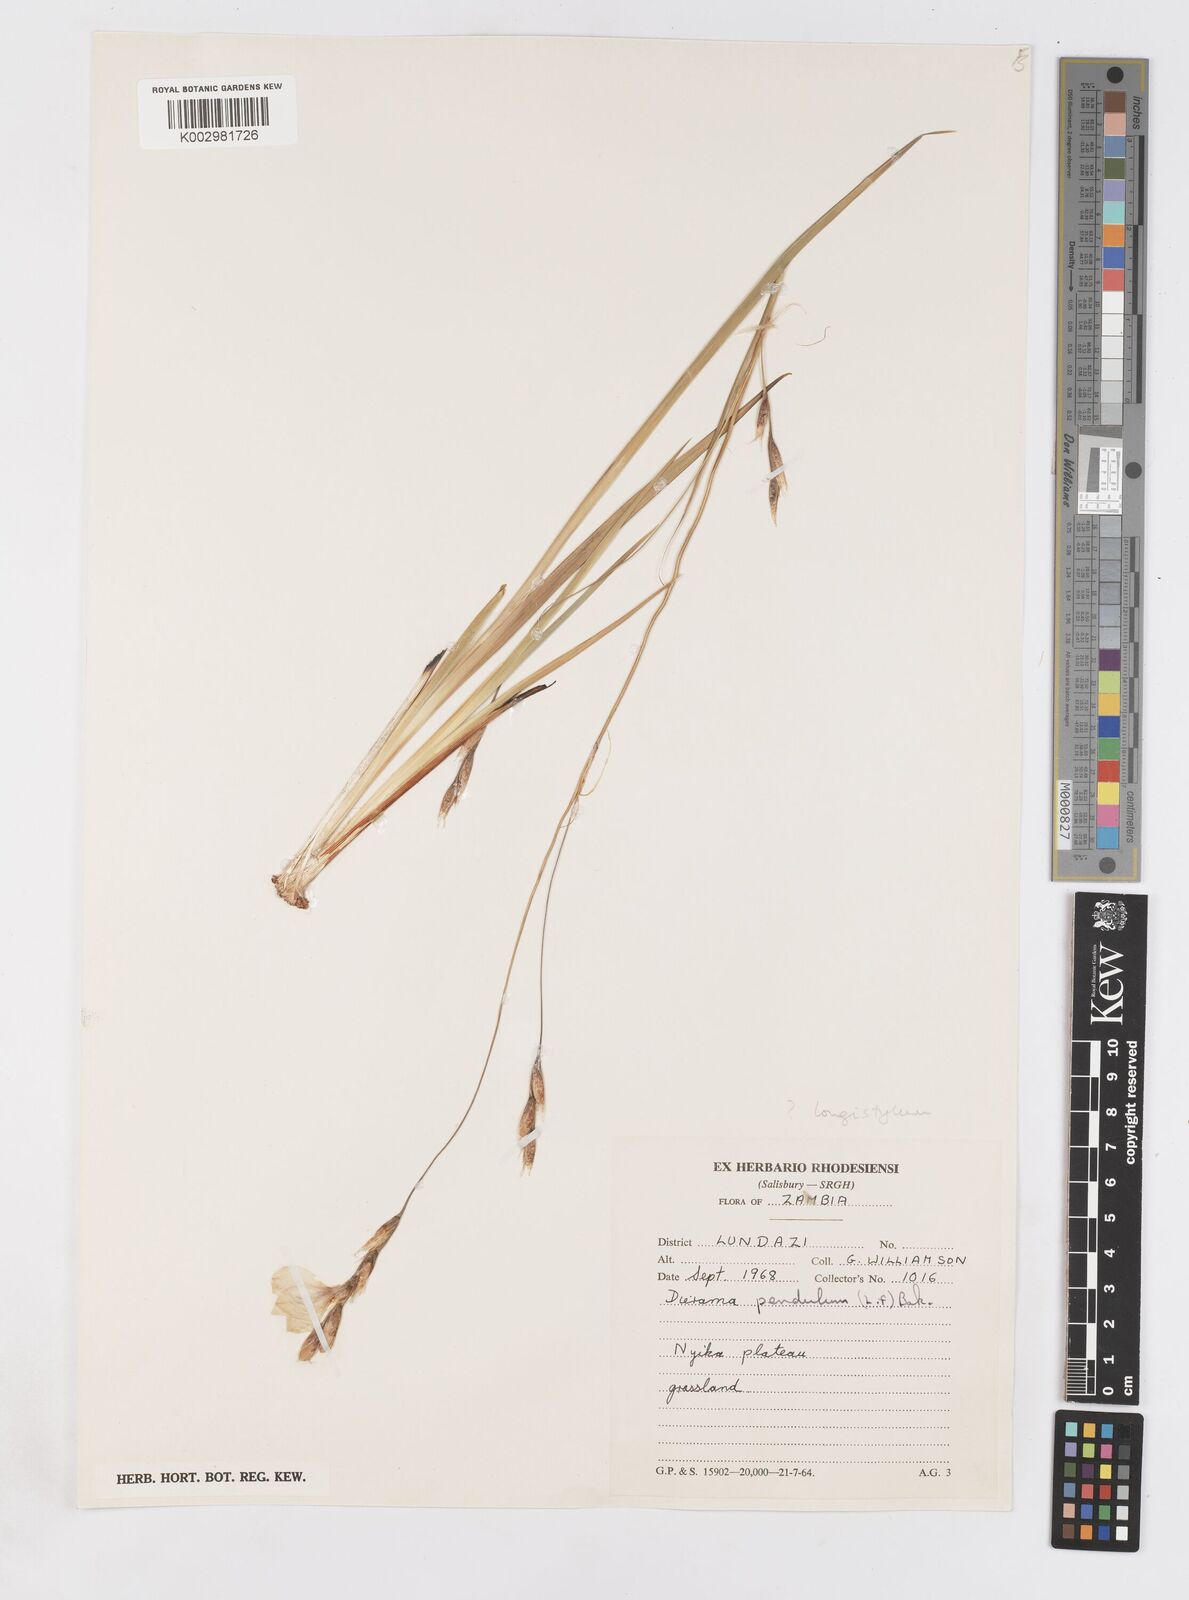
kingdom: Plantae
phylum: Tracheophyta
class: Liliopsida
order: Asparagales
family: Iridaceae
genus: Dierama
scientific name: Dierama
